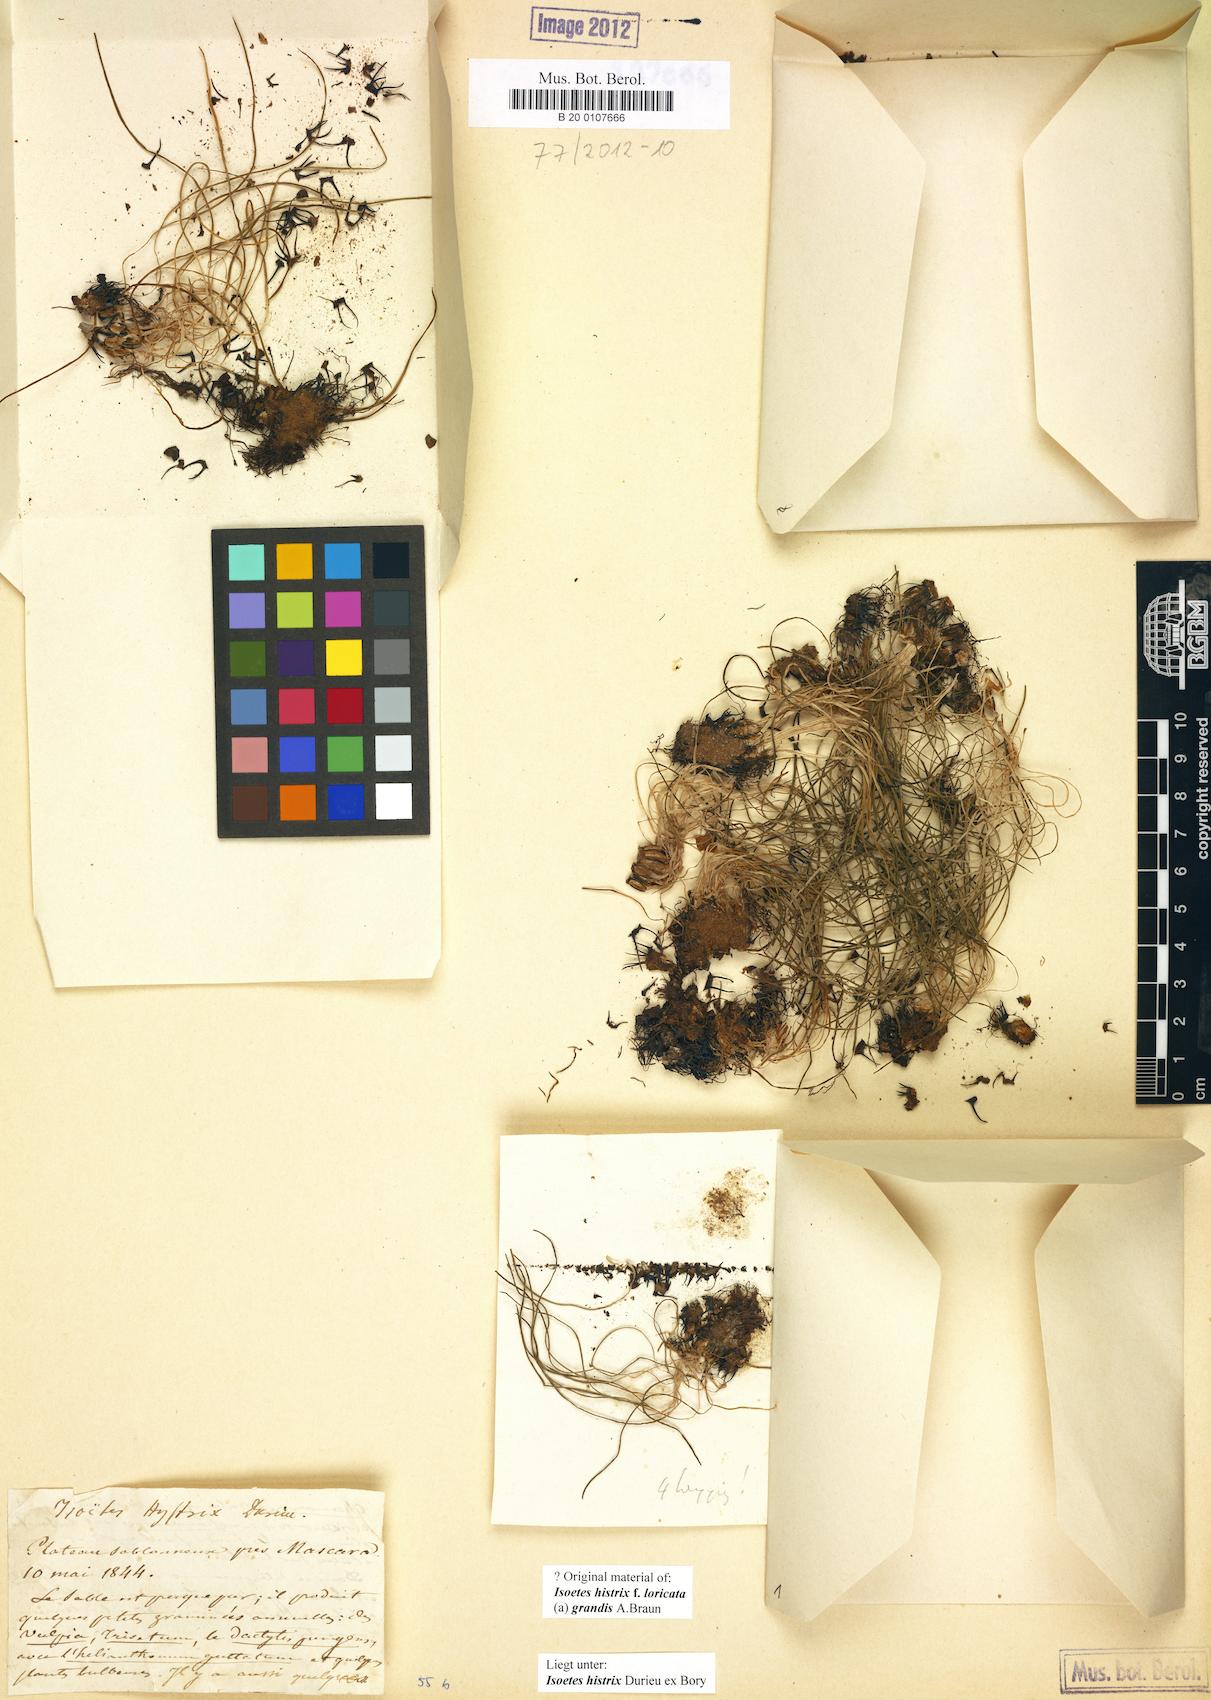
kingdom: Plantae
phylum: Tracheophyta
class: Lycopodiopsida
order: Isoetales
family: Isoetaceae
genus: Isoetes
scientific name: Isoetes histrix
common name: Land quillwort
